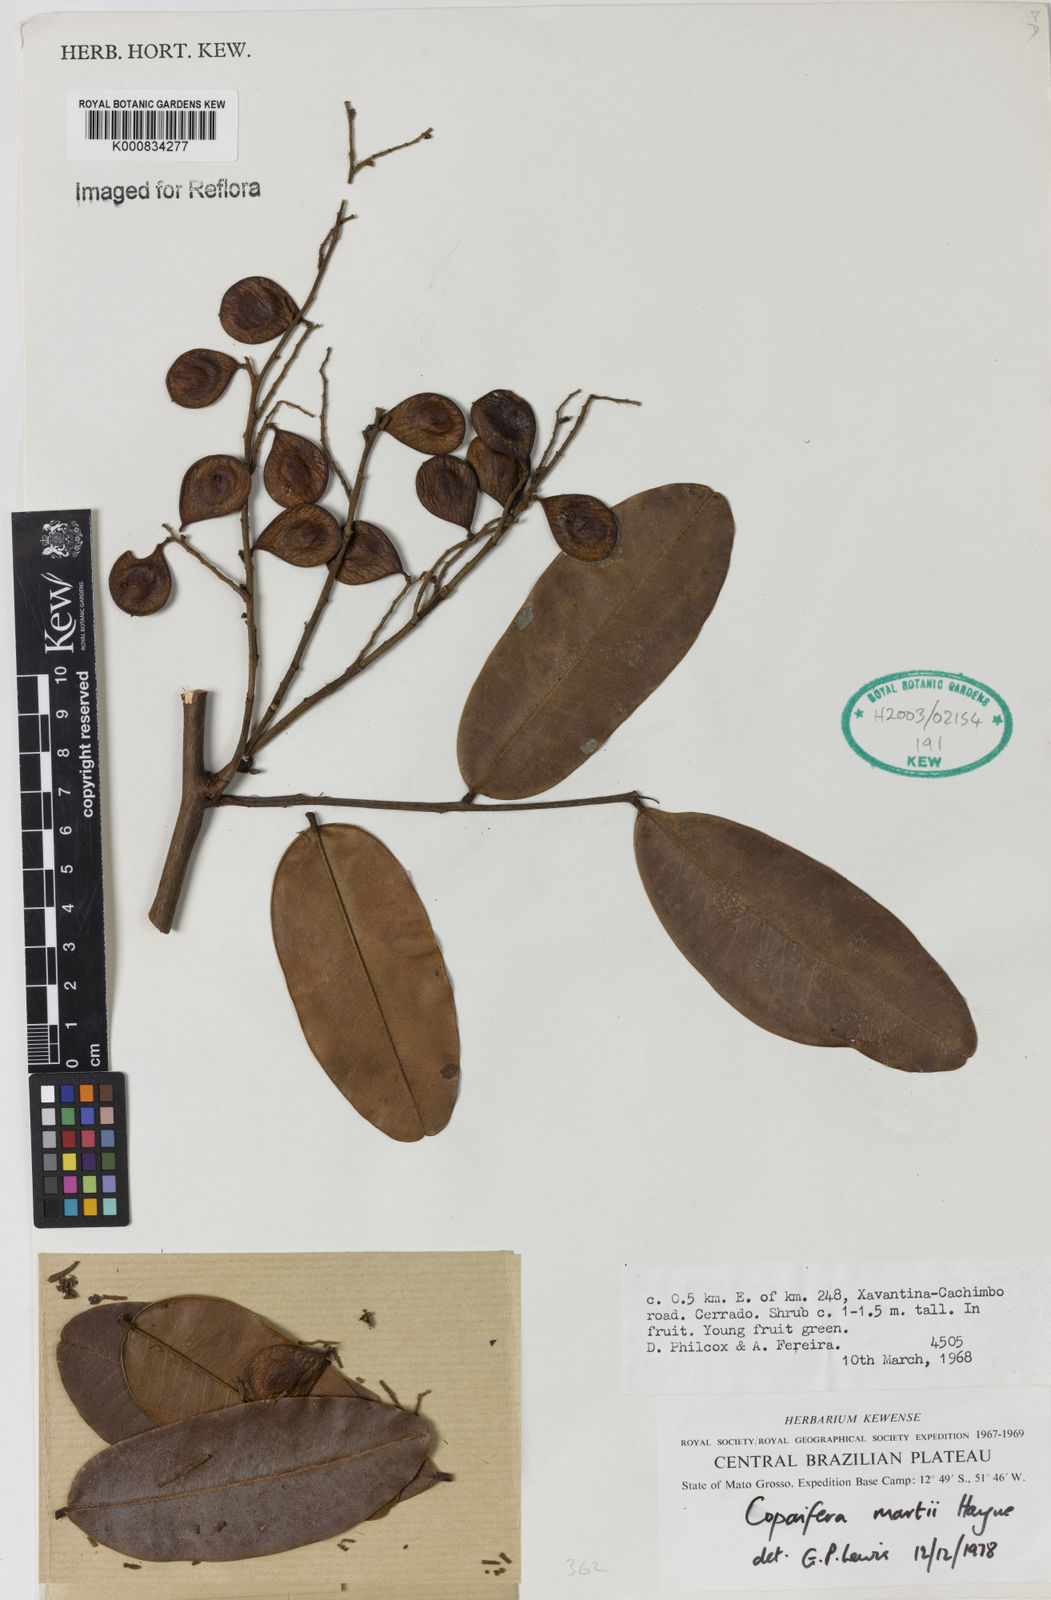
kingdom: Plantae
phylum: Tracheophyta
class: Magnoliopsida
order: Fabales
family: Fabaceae
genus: Copaifera
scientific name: Copaifera martii
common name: Copaiba
